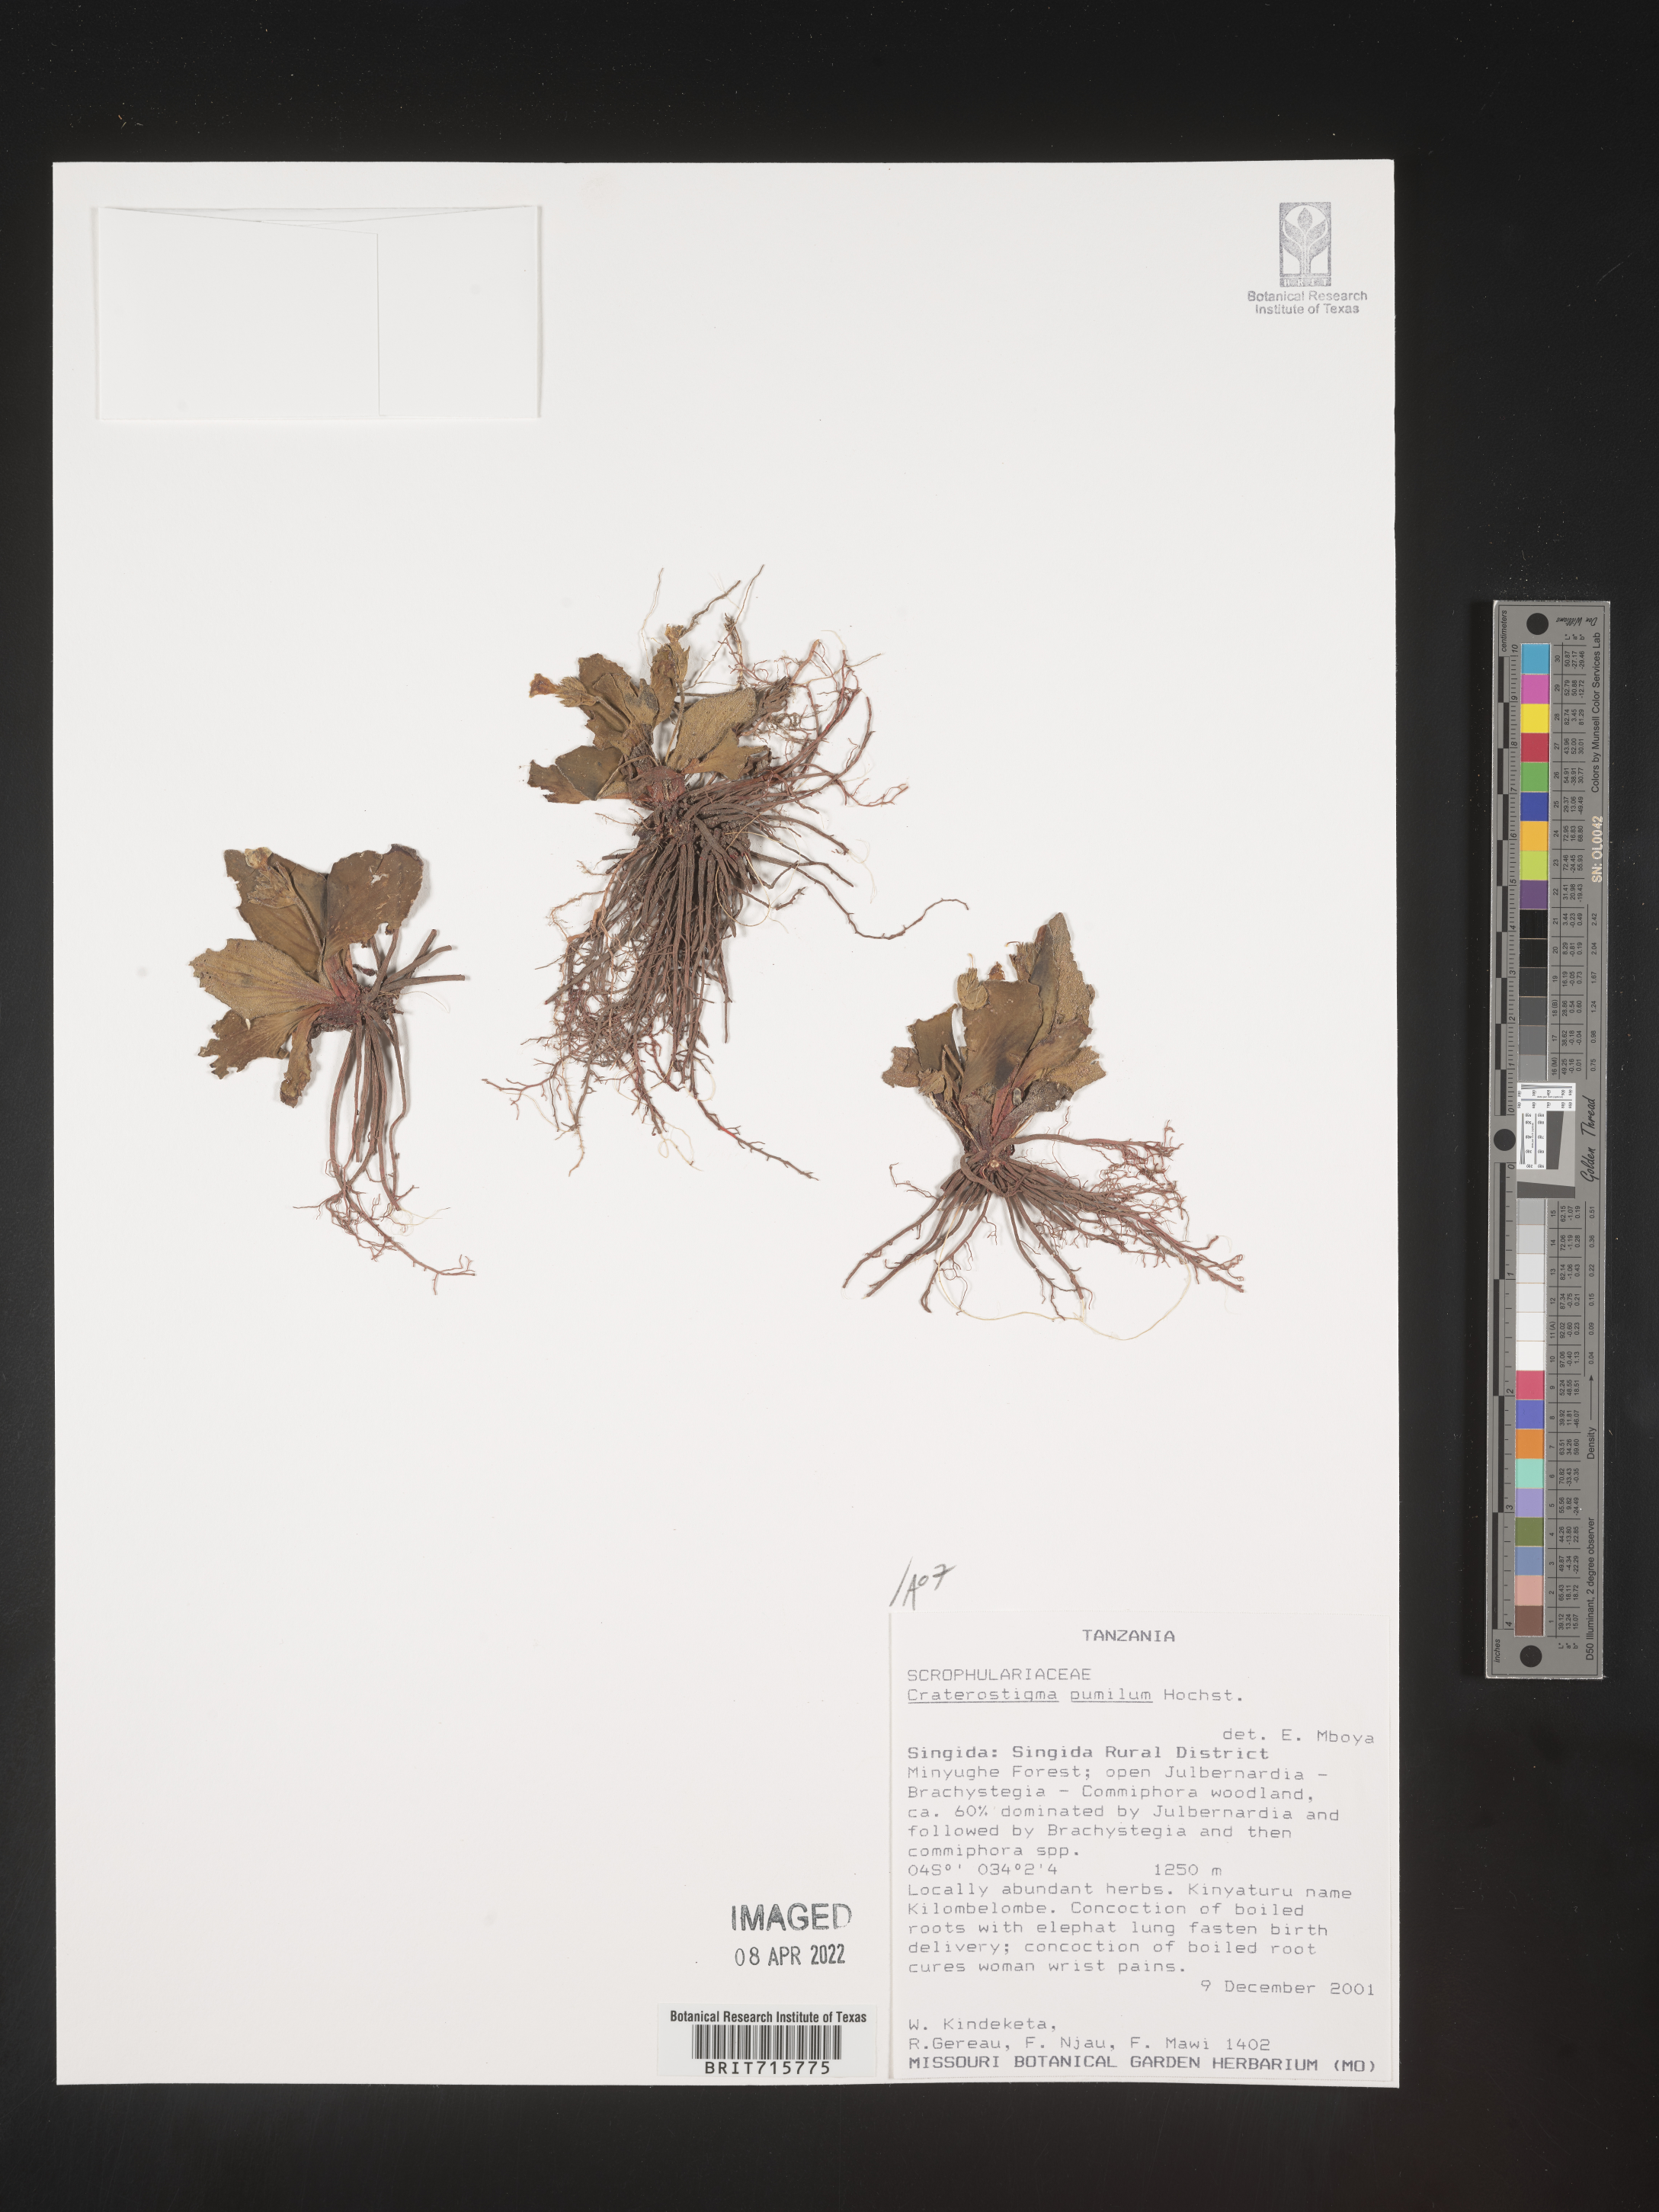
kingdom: Plantae
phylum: Tracheophyta
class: Magnoliopsida
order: Lamiales
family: Linderniaceae
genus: Craterostigma
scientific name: Craterostigma
